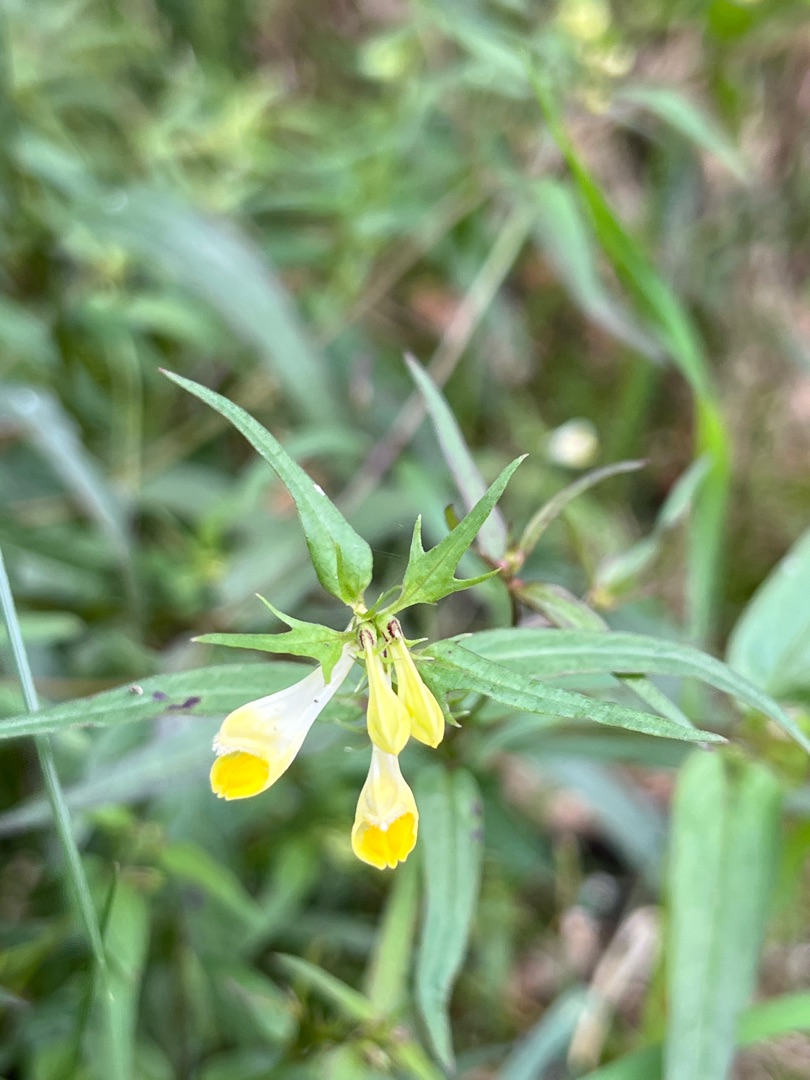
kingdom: Plantae
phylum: Tracheophyta
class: Magnoliopsida
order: Lamiales
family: Orobanchaceae
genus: Melampyrum
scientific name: Melampyrum pratense
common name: Almindelig kohvede
